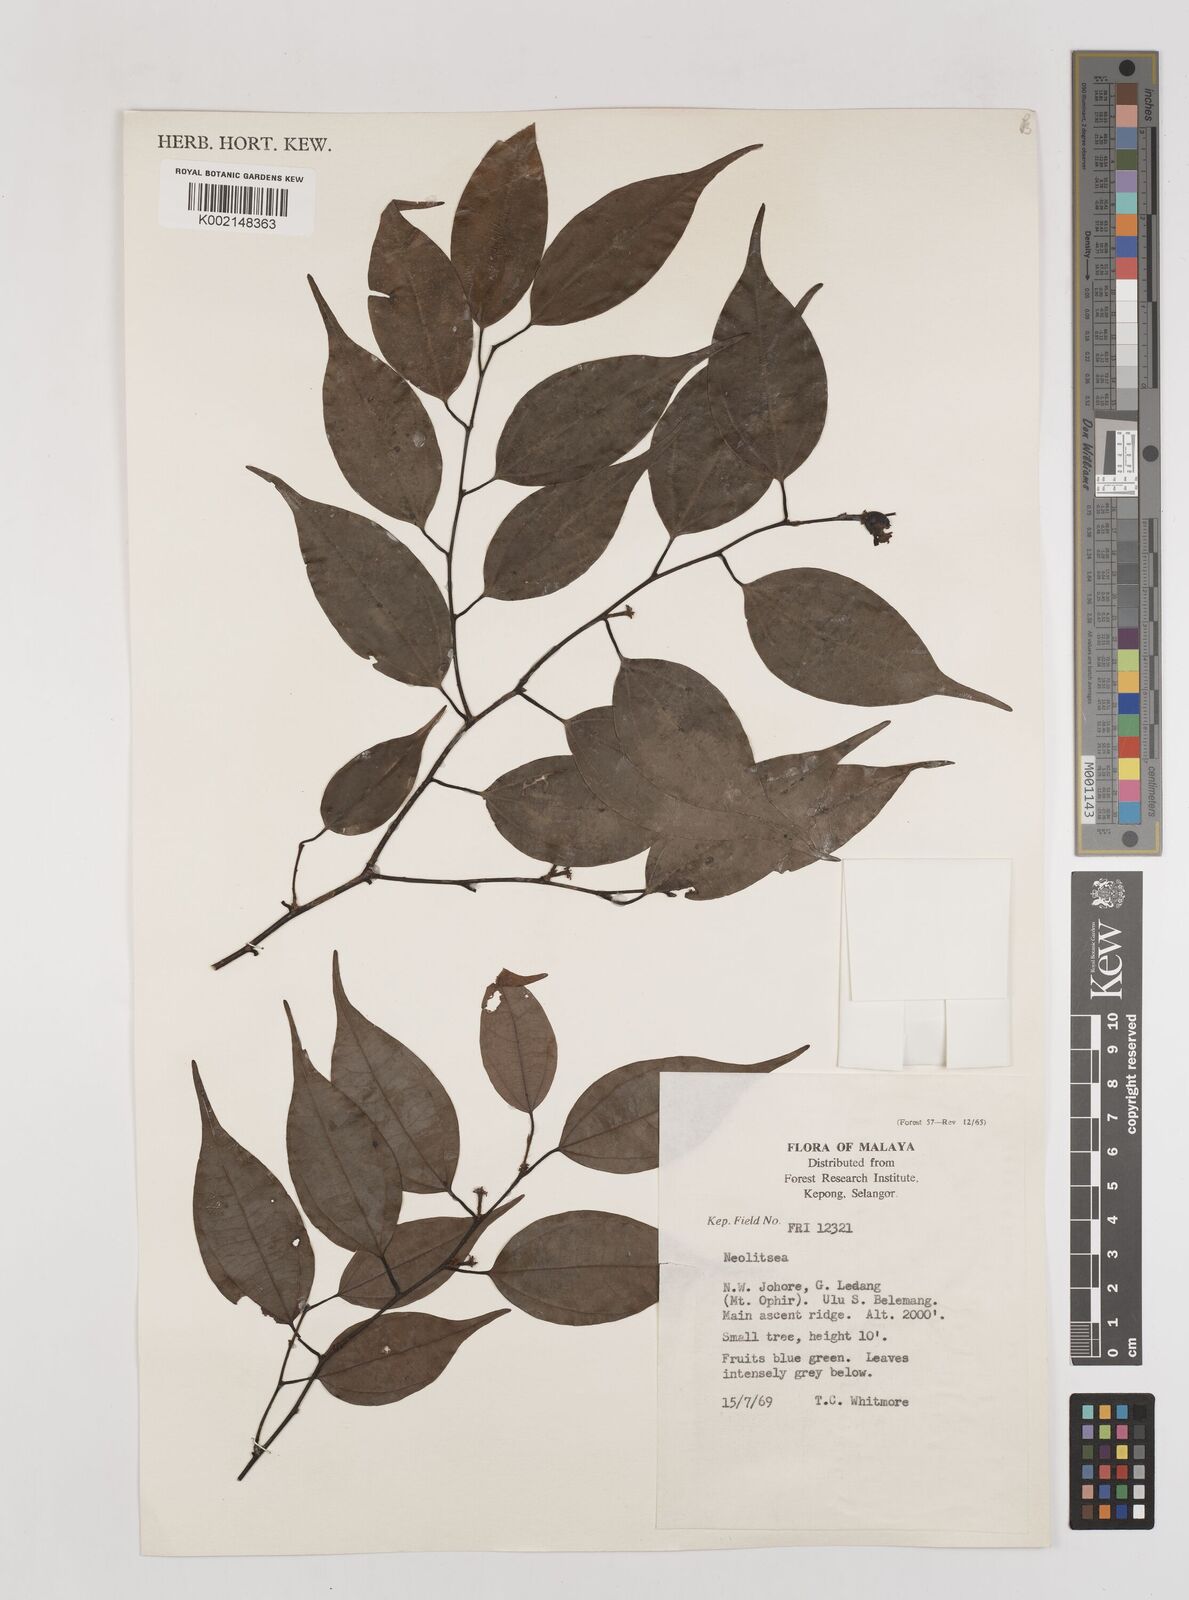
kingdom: Plantae
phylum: Tracheophyta
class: Magnoliopsida
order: Laurales
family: Lauraceae
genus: Neolitsea
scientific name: Neolitsea
